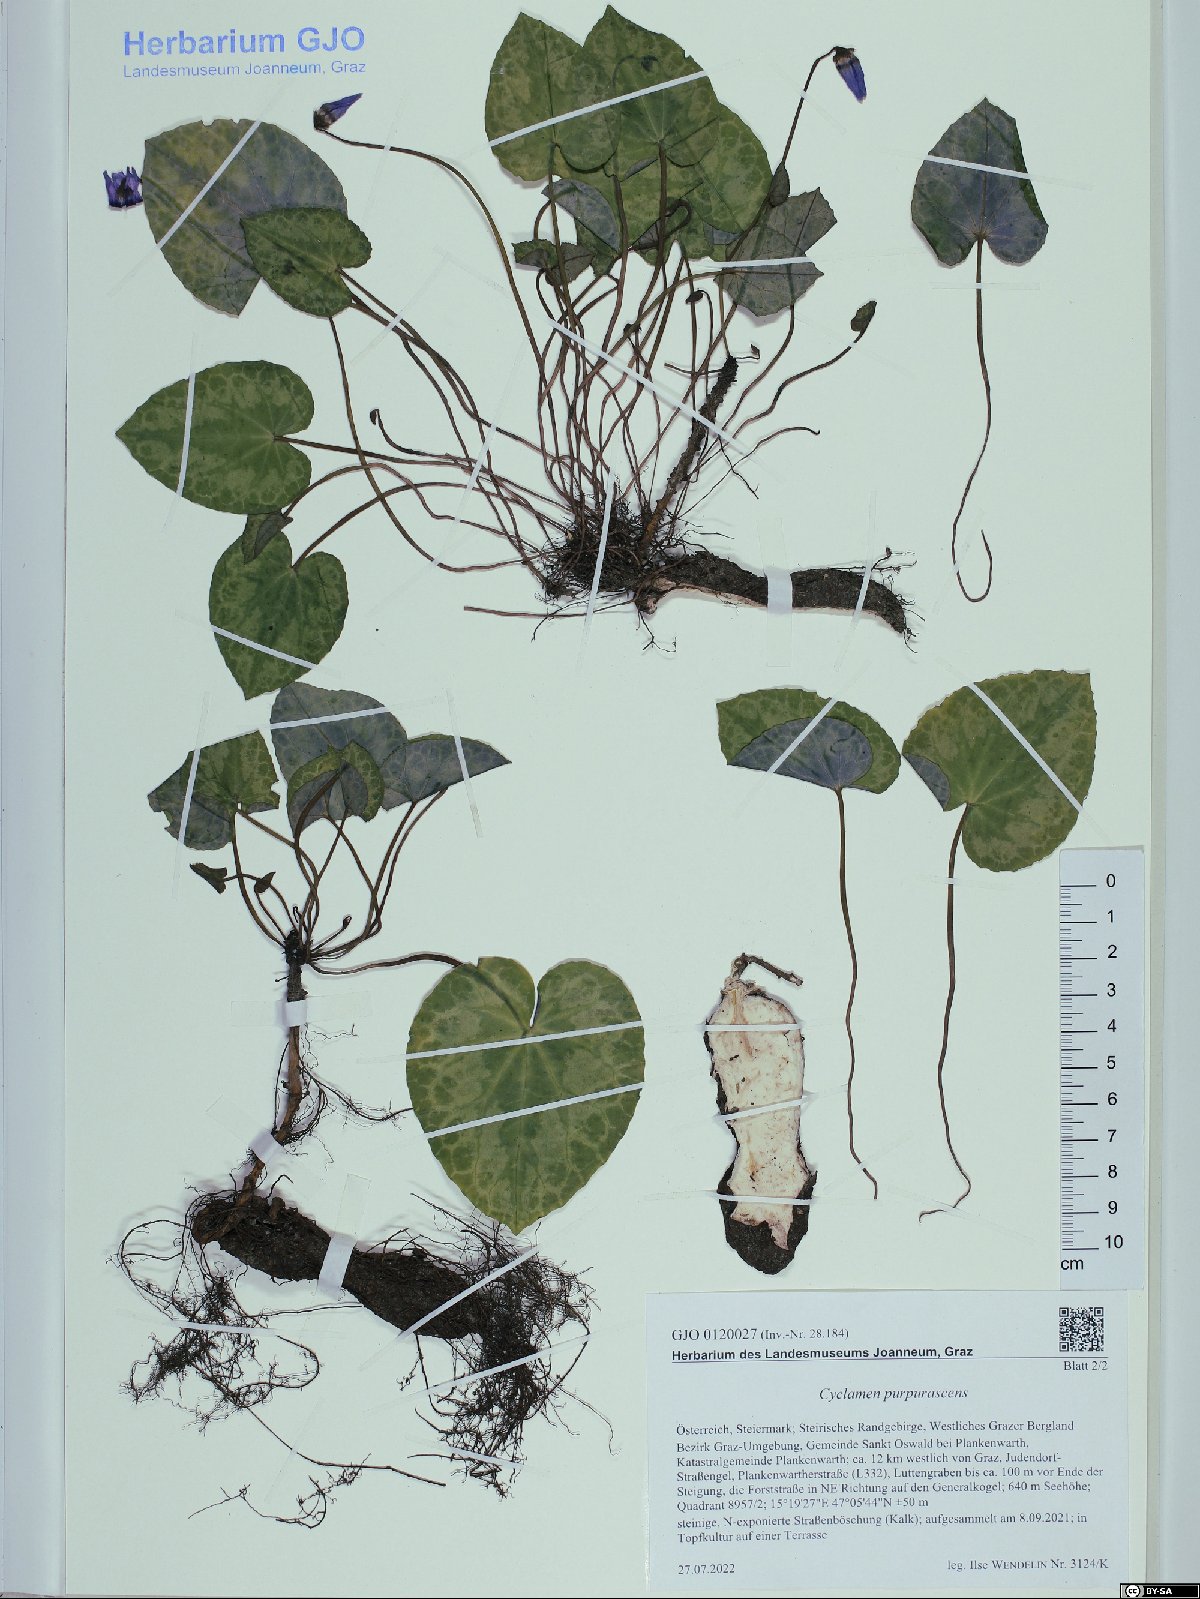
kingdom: Plantae
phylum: Tracheophyta
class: Magnoliopsida
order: Ericales
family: Primulaceae
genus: Cyclamen
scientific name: Cyclamen purpurascens
